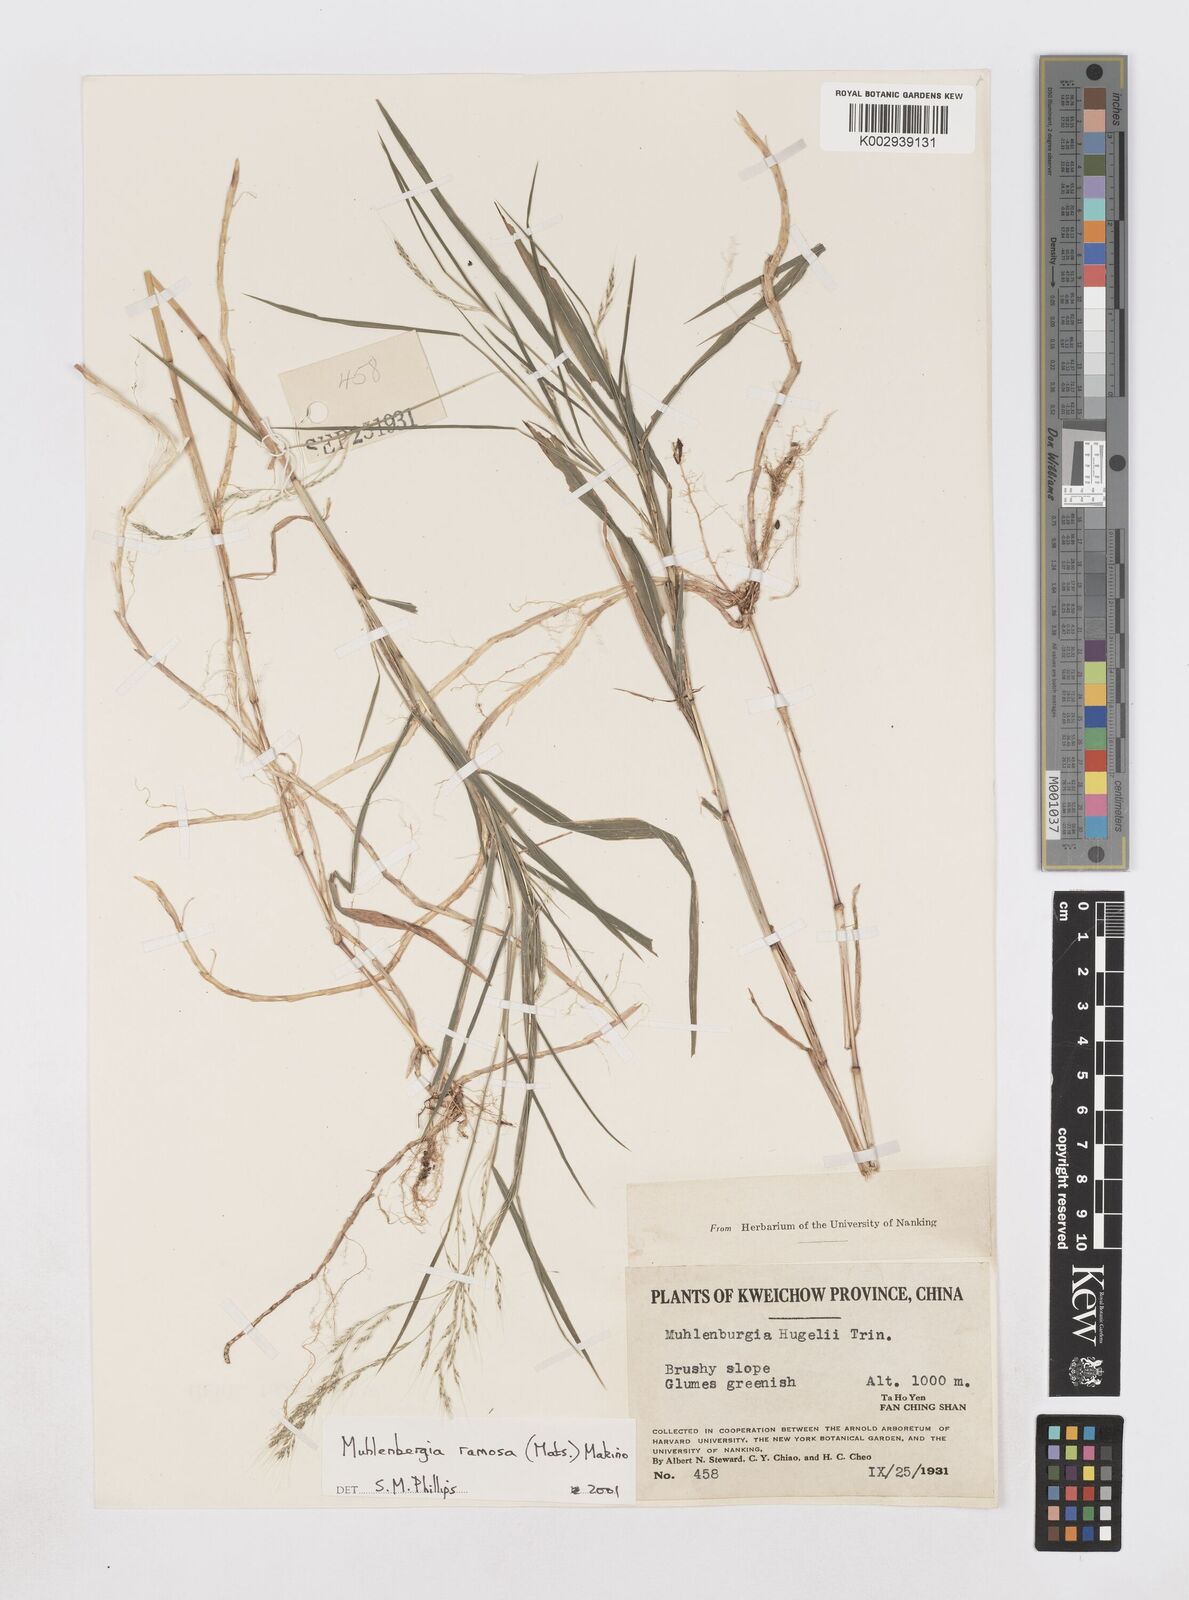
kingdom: Plantae
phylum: Tracheophyta
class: Liliopsida
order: Poales
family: Poaceae
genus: Muhlenbergia
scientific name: Muhlenbergia ramosa
